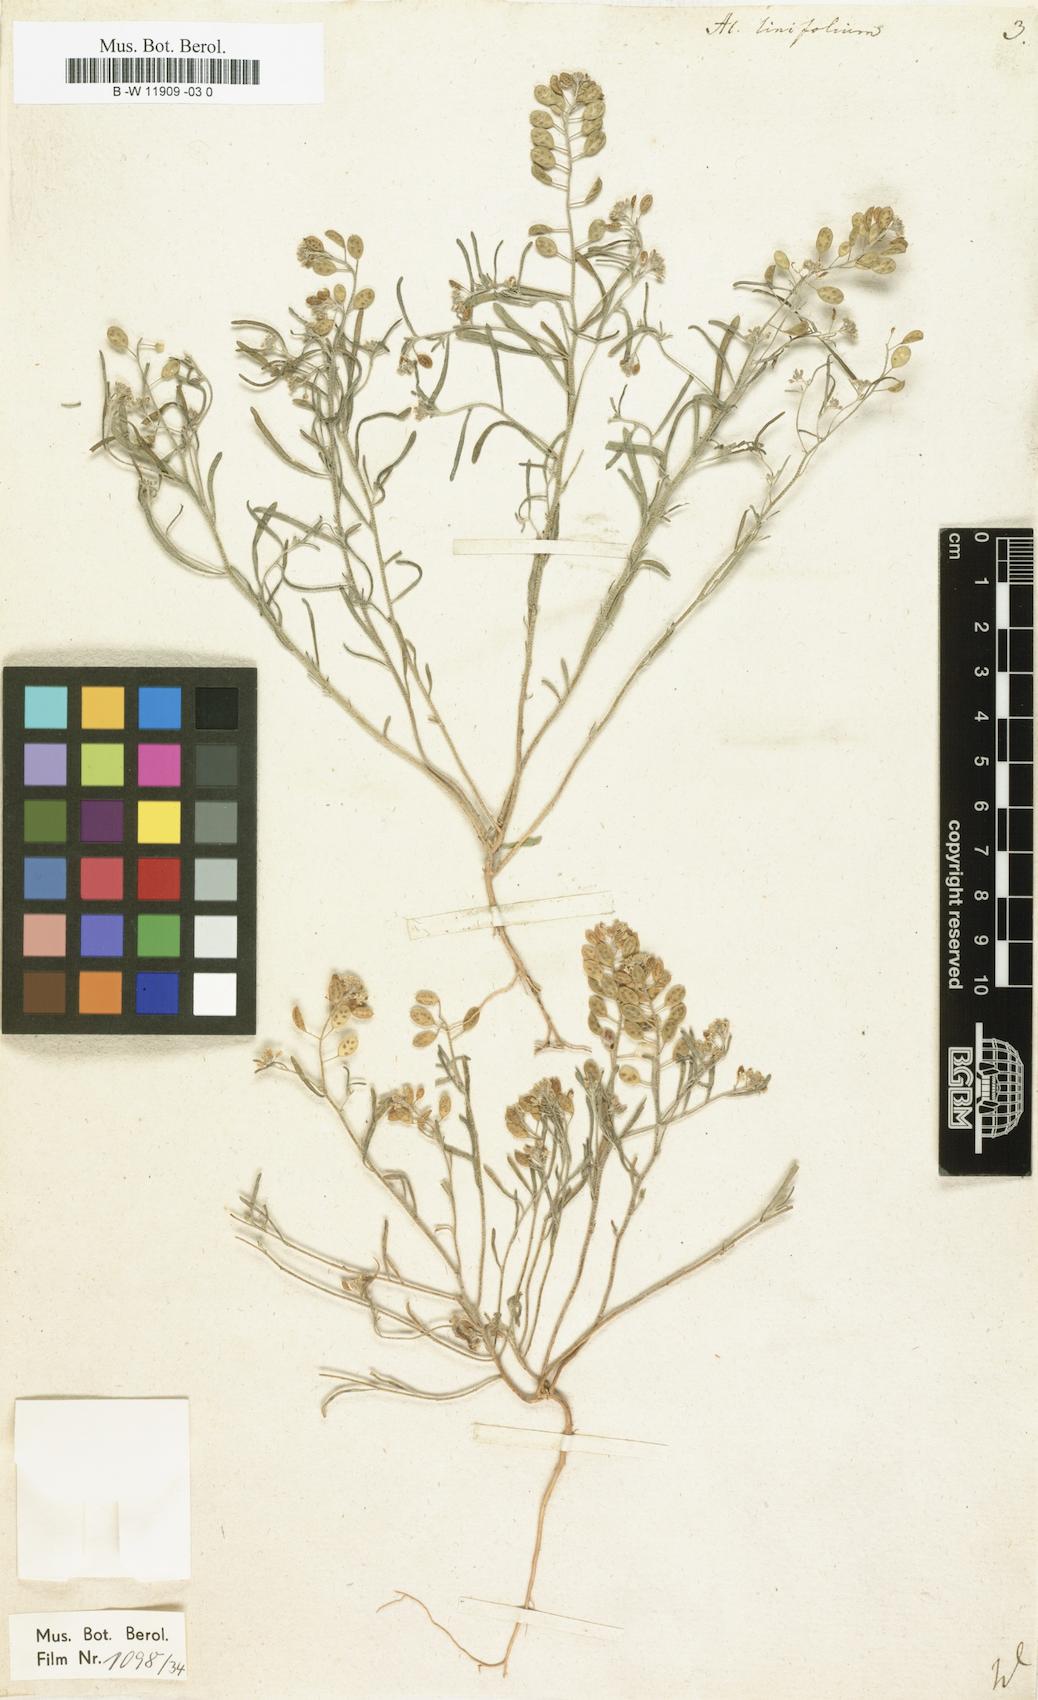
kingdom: Plantae
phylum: Tracheophyta
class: Magnoliopsida
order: Brassicales
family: Brassicaceae
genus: Meniocus
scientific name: Meniocus linifolius
